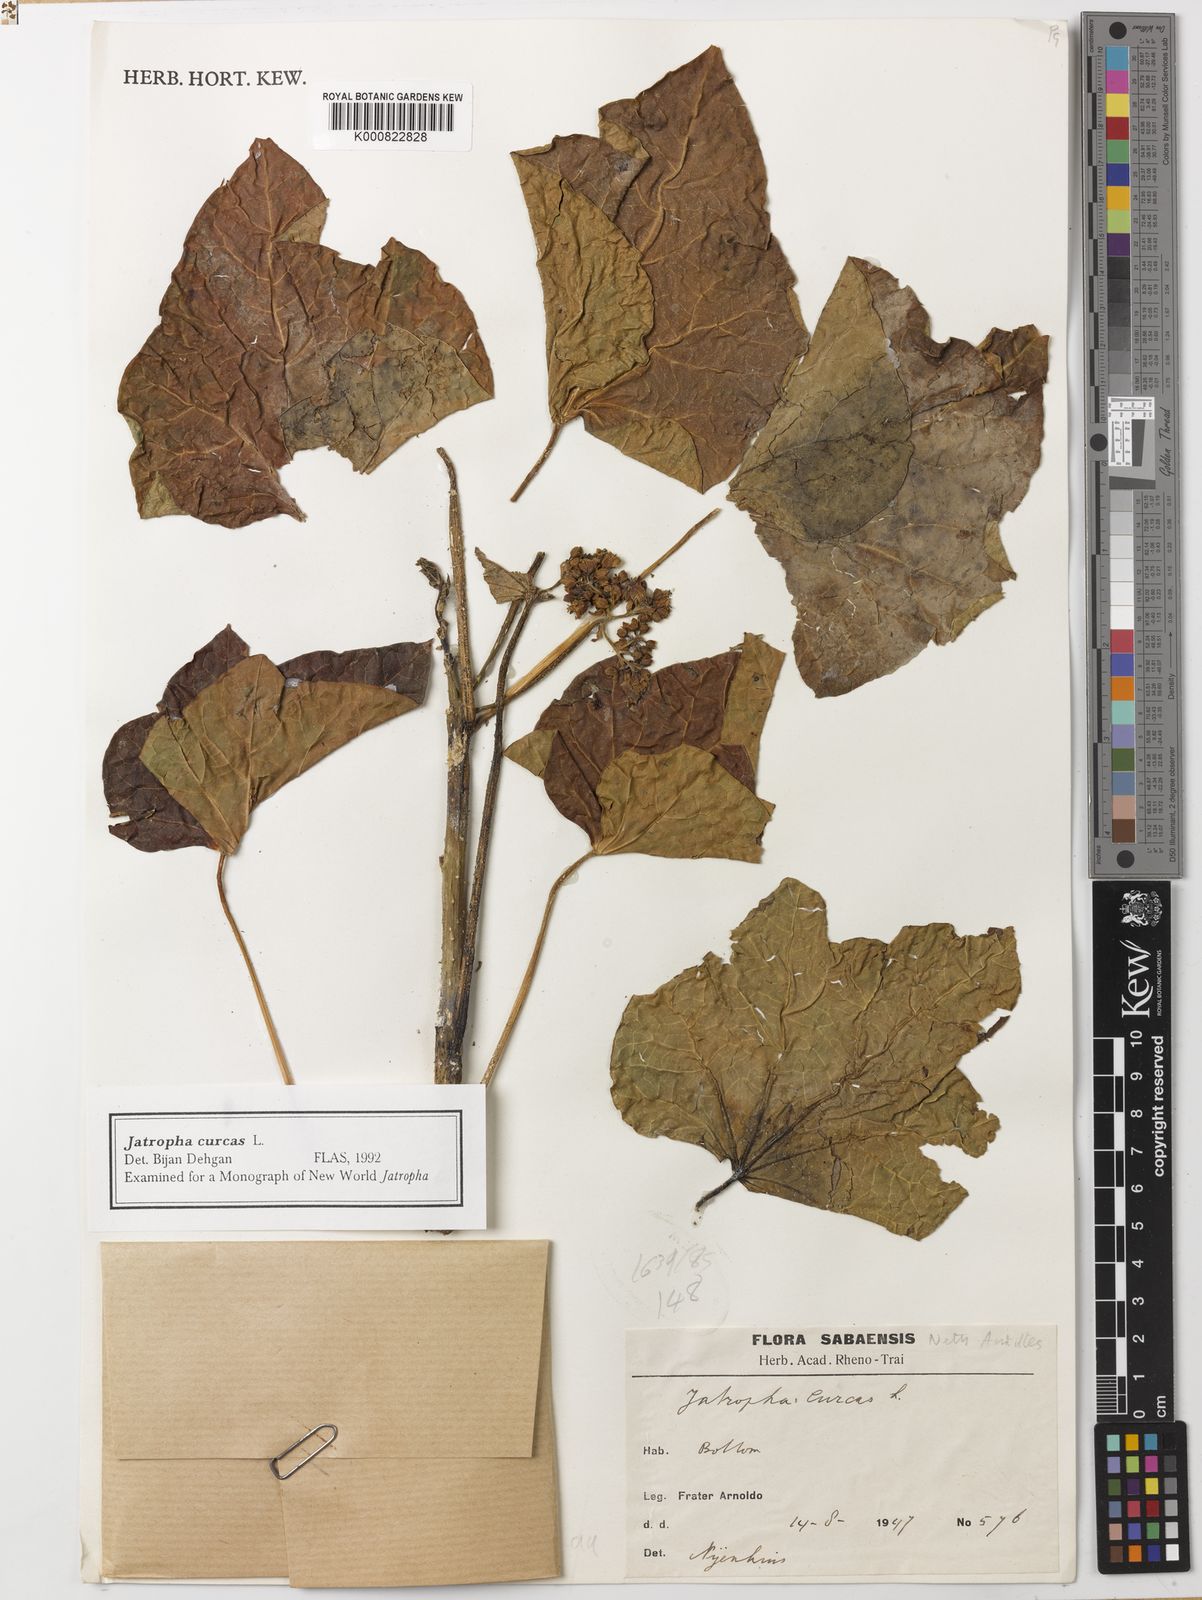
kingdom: Plantae
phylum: Tracheophyta
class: Magnoliopsida
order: Malpighiales
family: Euphorbiaceae
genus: Jatropha
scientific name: Jatropha curcas
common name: Barbados nut
